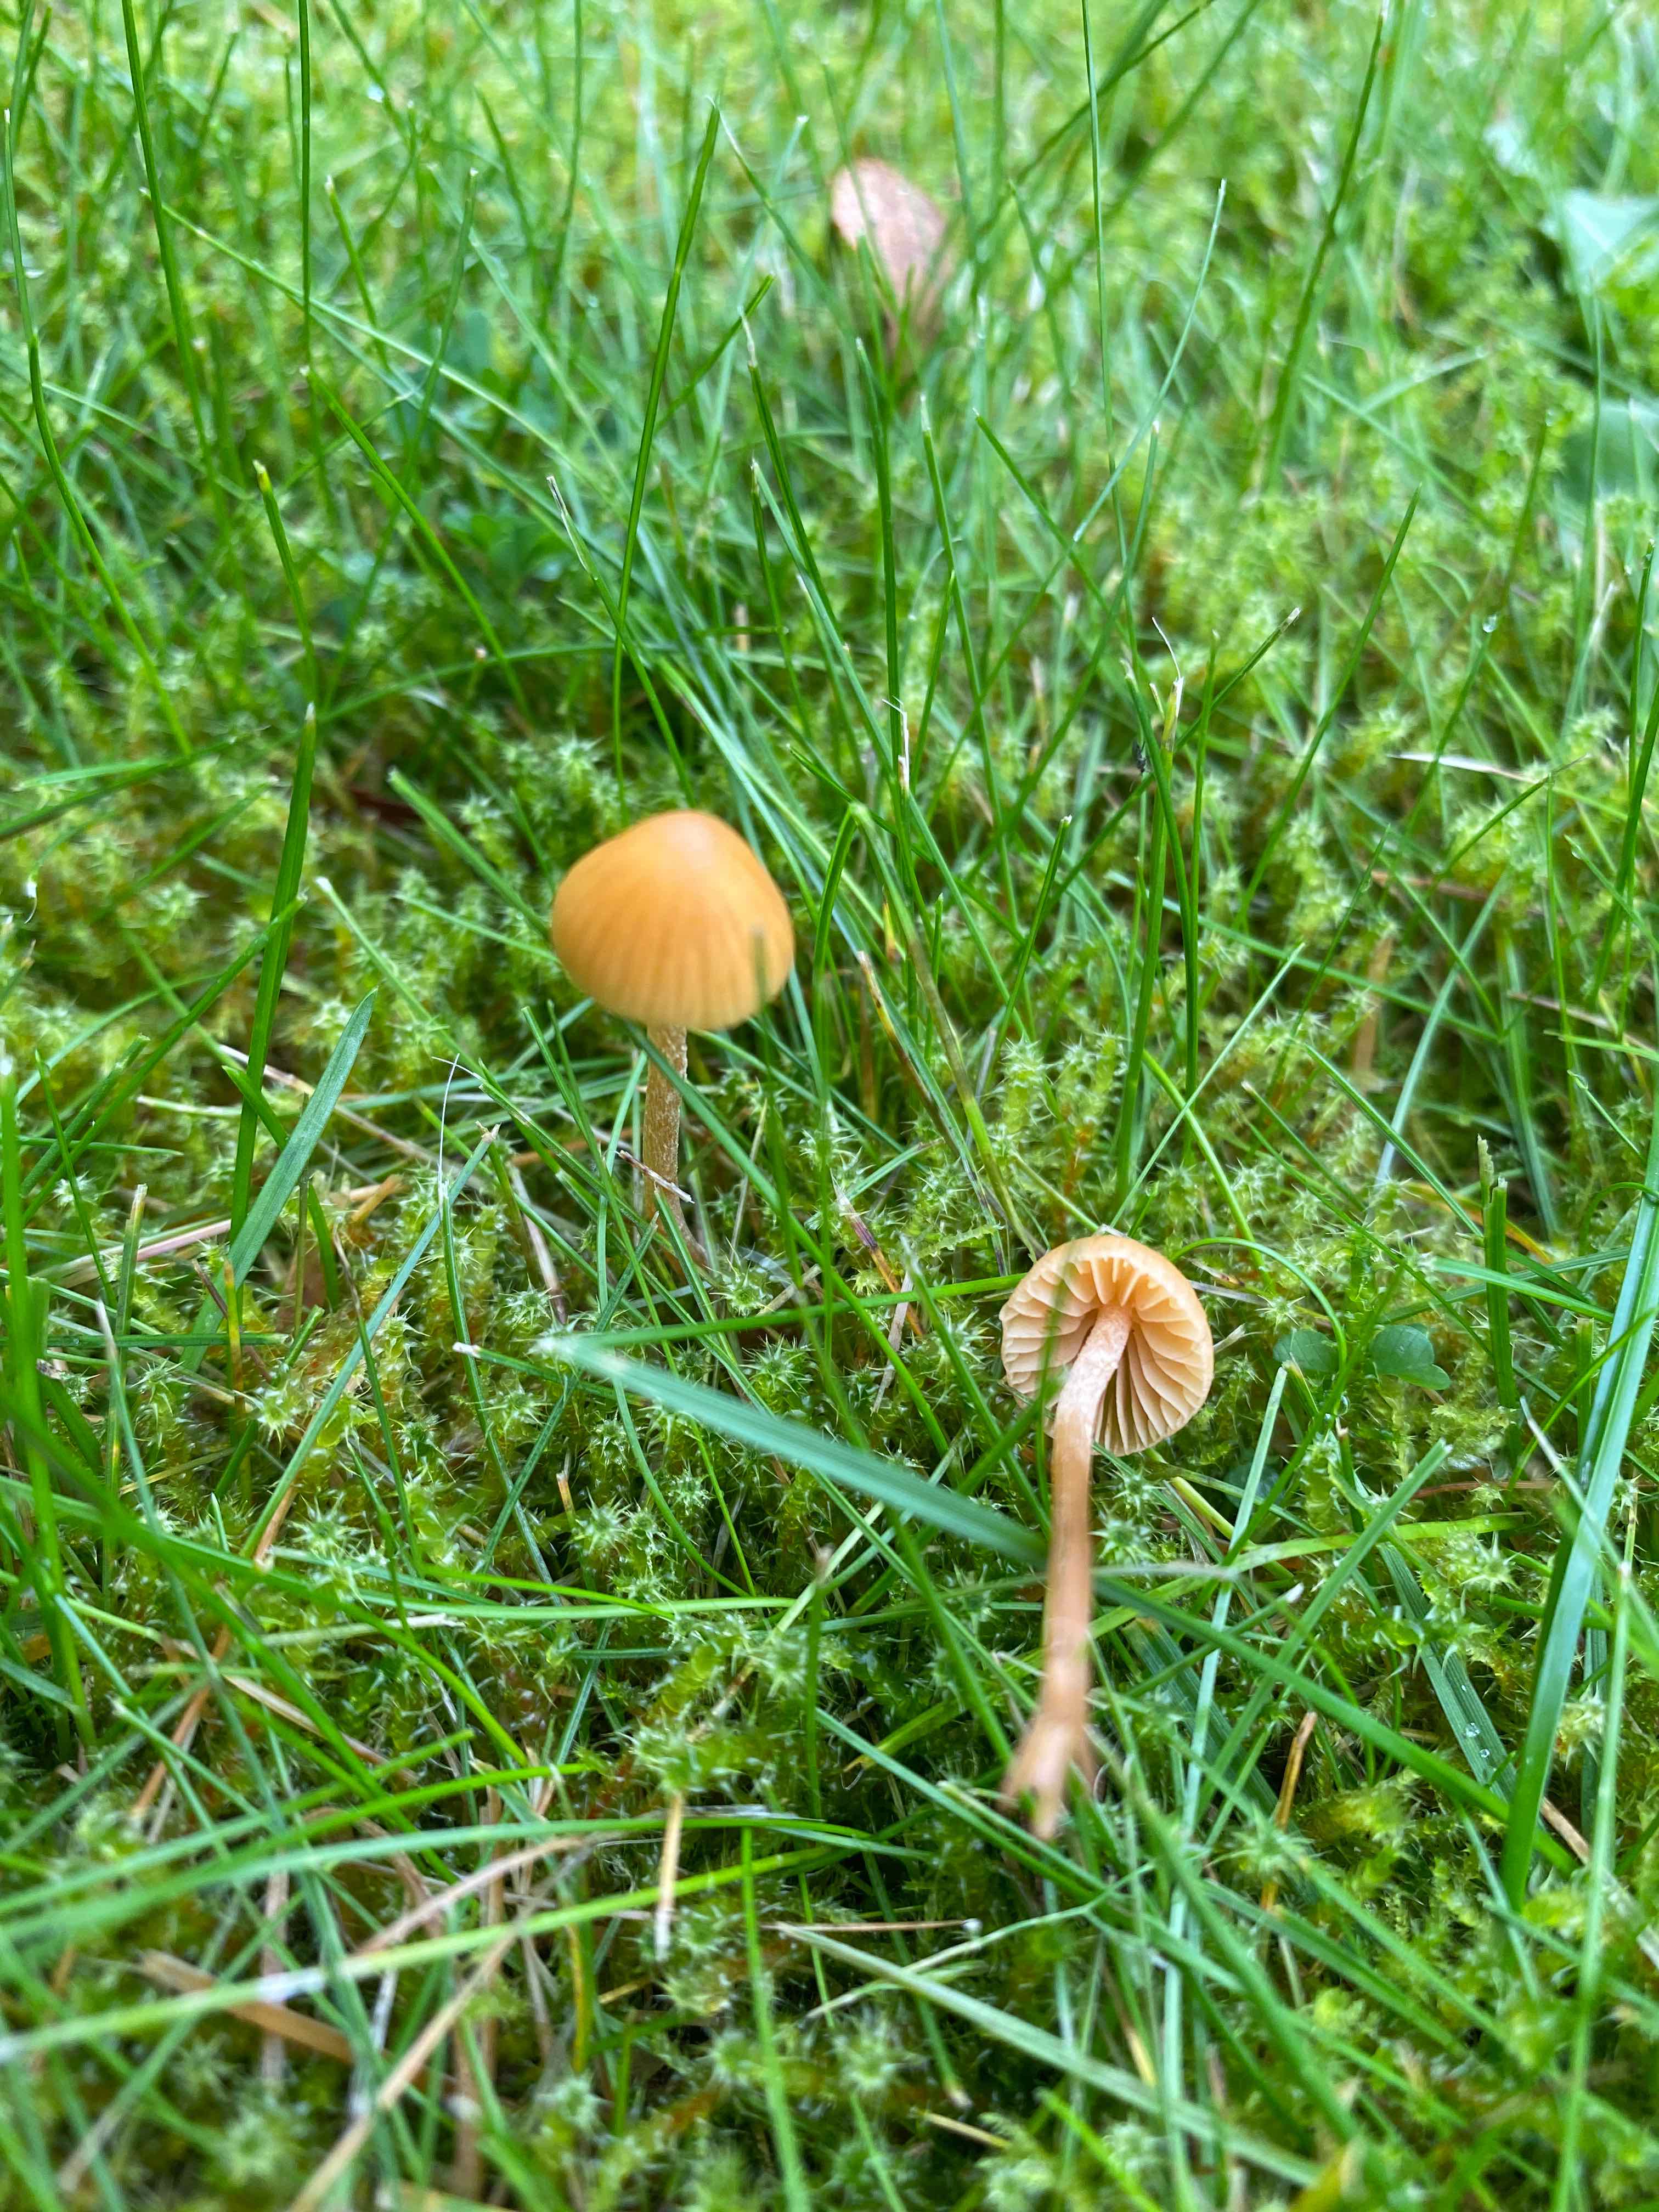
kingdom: Fungi
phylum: Basidiomycota
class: Agaricomycetes
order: Agaricales
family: Hymenogastraceae
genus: Galerina
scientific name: Galerina
